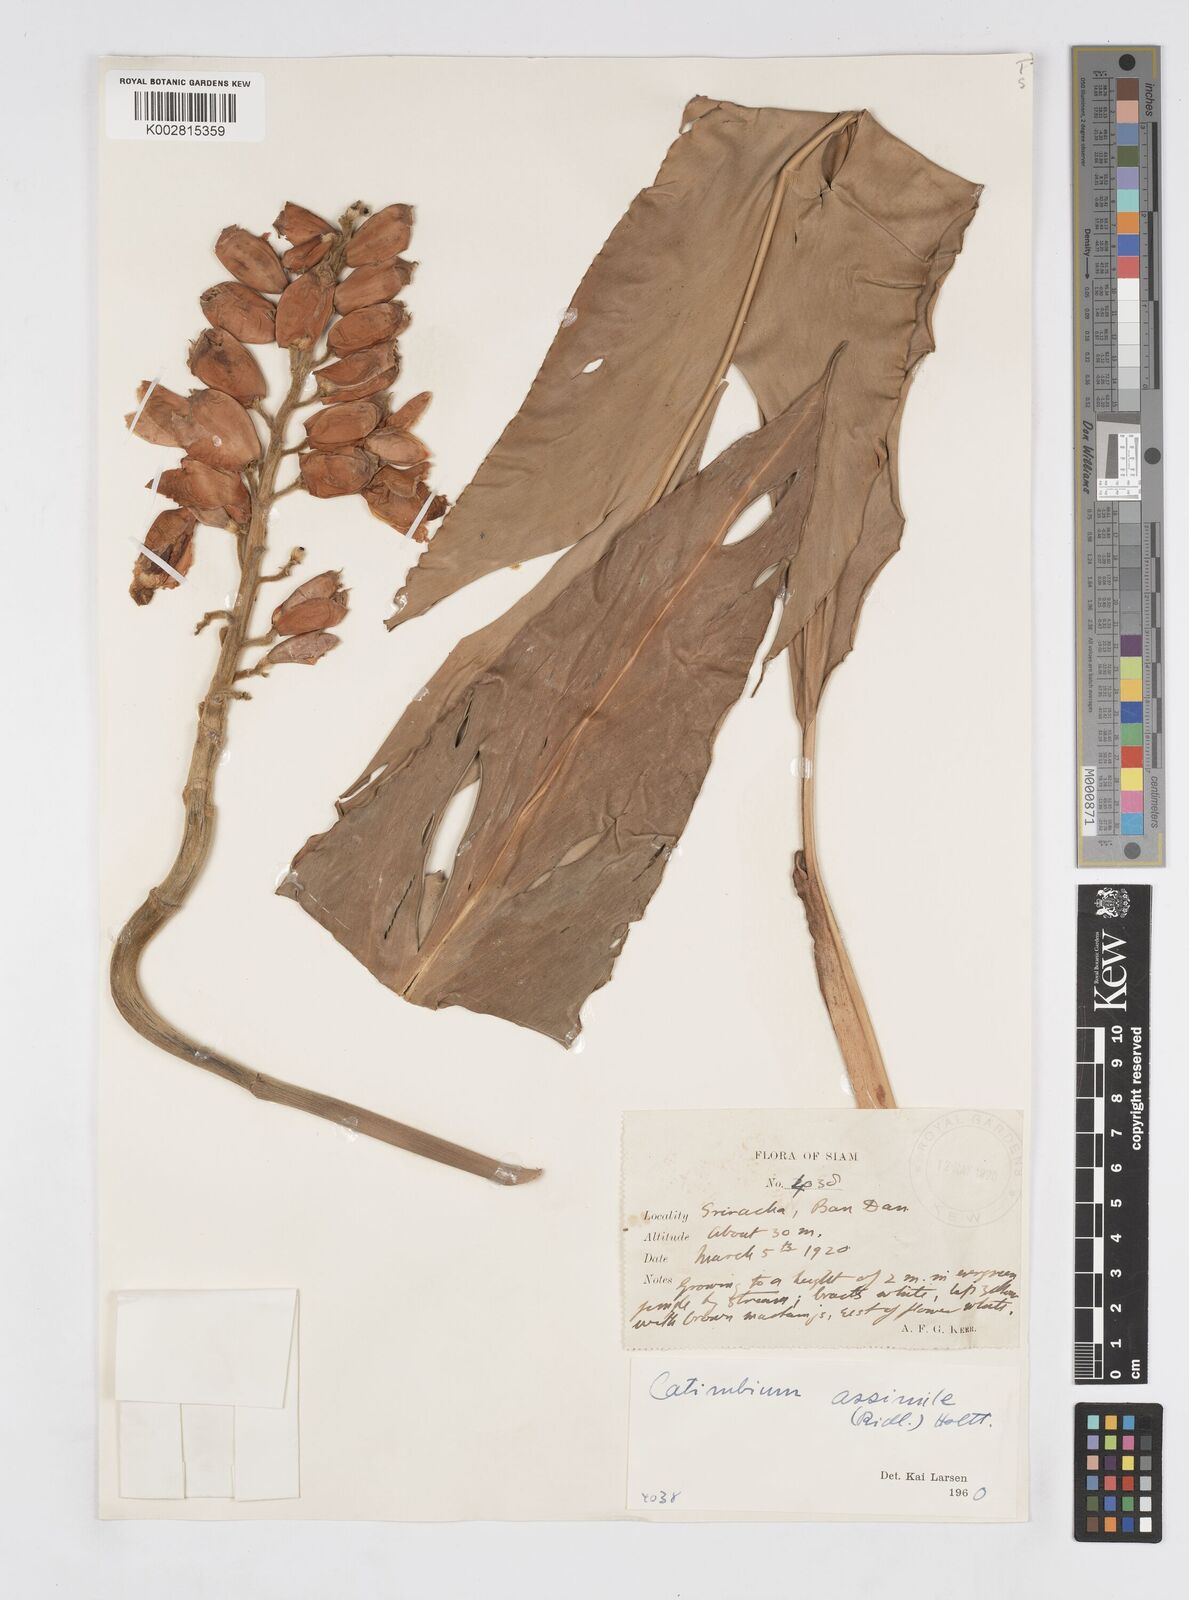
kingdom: Plantae
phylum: Tracheophyta
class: Liliopsida
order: Zingiberales
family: Zingiberaceae
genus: Alpinia
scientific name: Alpinia assimilis
